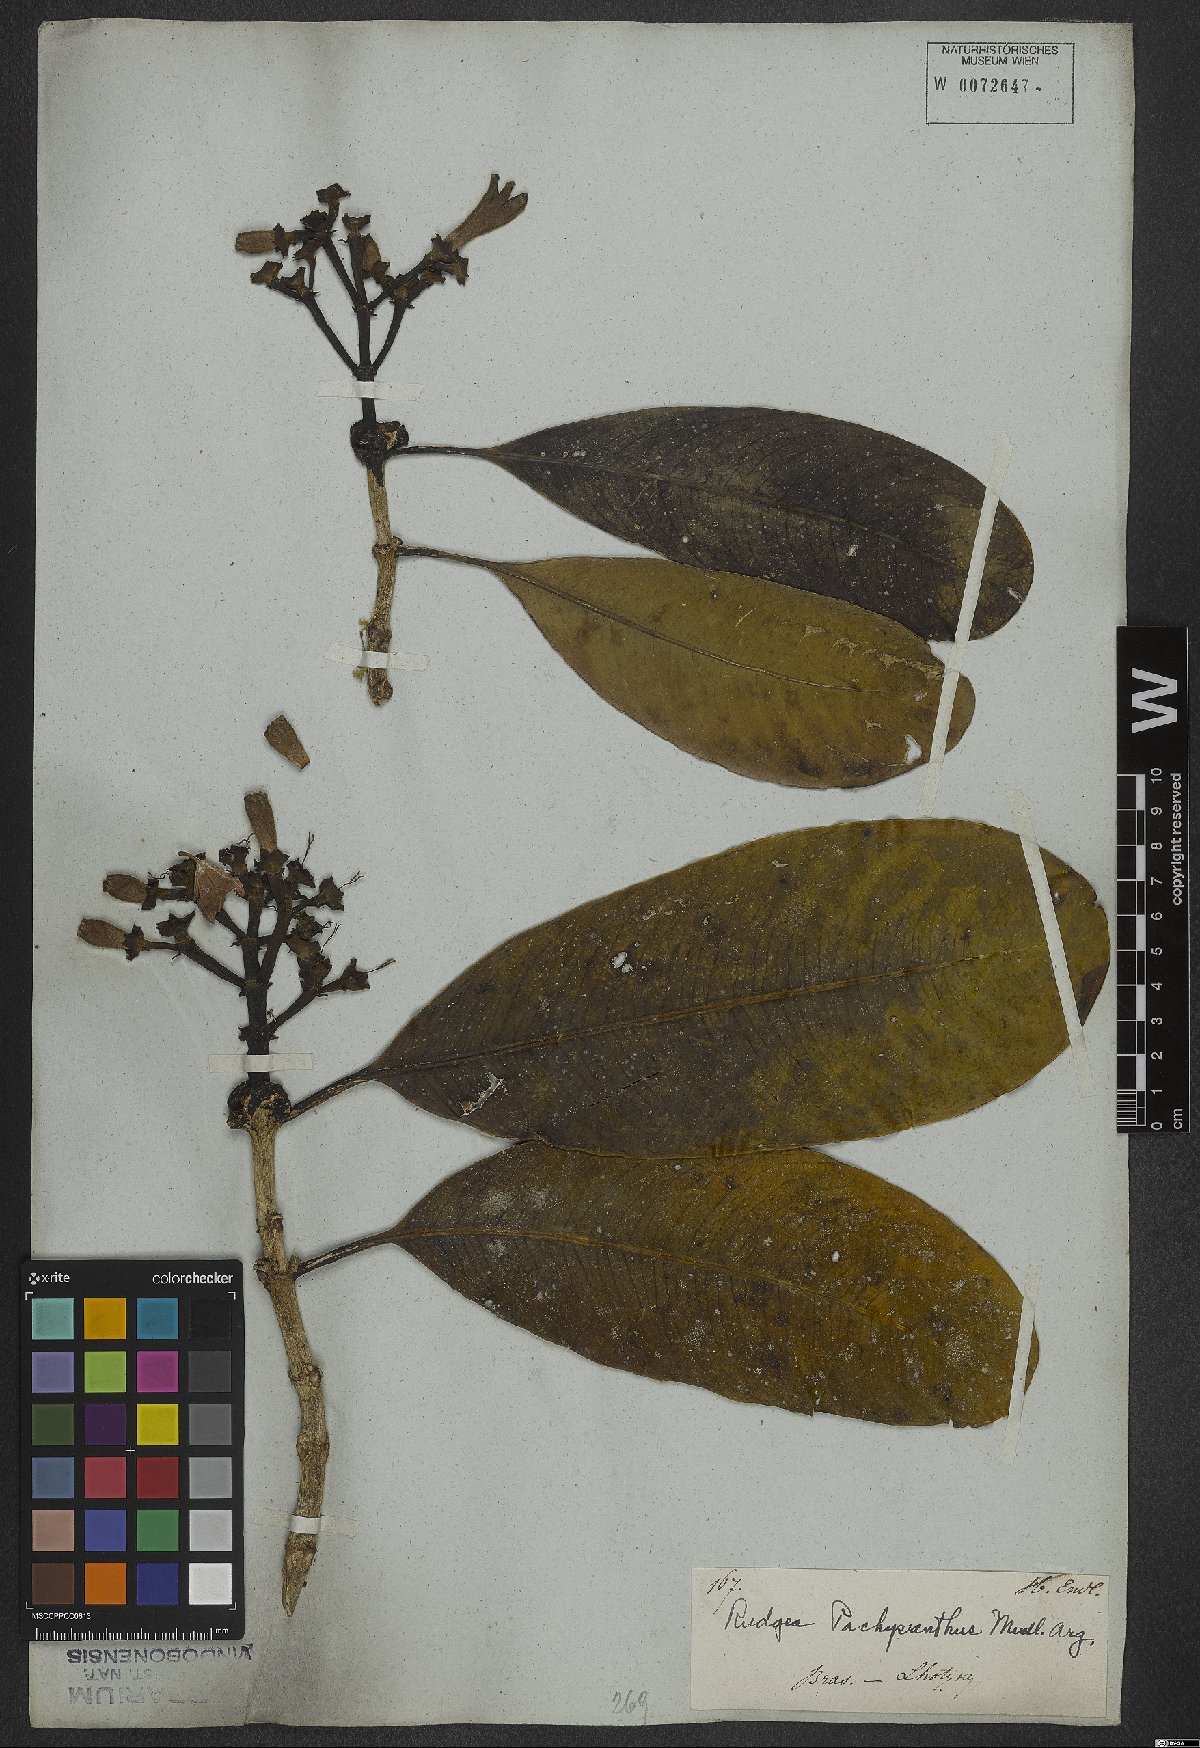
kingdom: Plantae
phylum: Tracheophyta
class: Magnoliopsida
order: Gentianales
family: Rubiaceae
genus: Rudgea
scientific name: Rudgea vellerea
